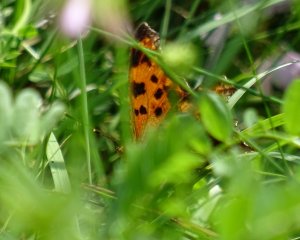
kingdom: Animalia
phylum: Arthropoda
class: Insecta
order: Lepidoptera
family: Nymphalidae
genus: Polygonia
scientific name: Polygonia
